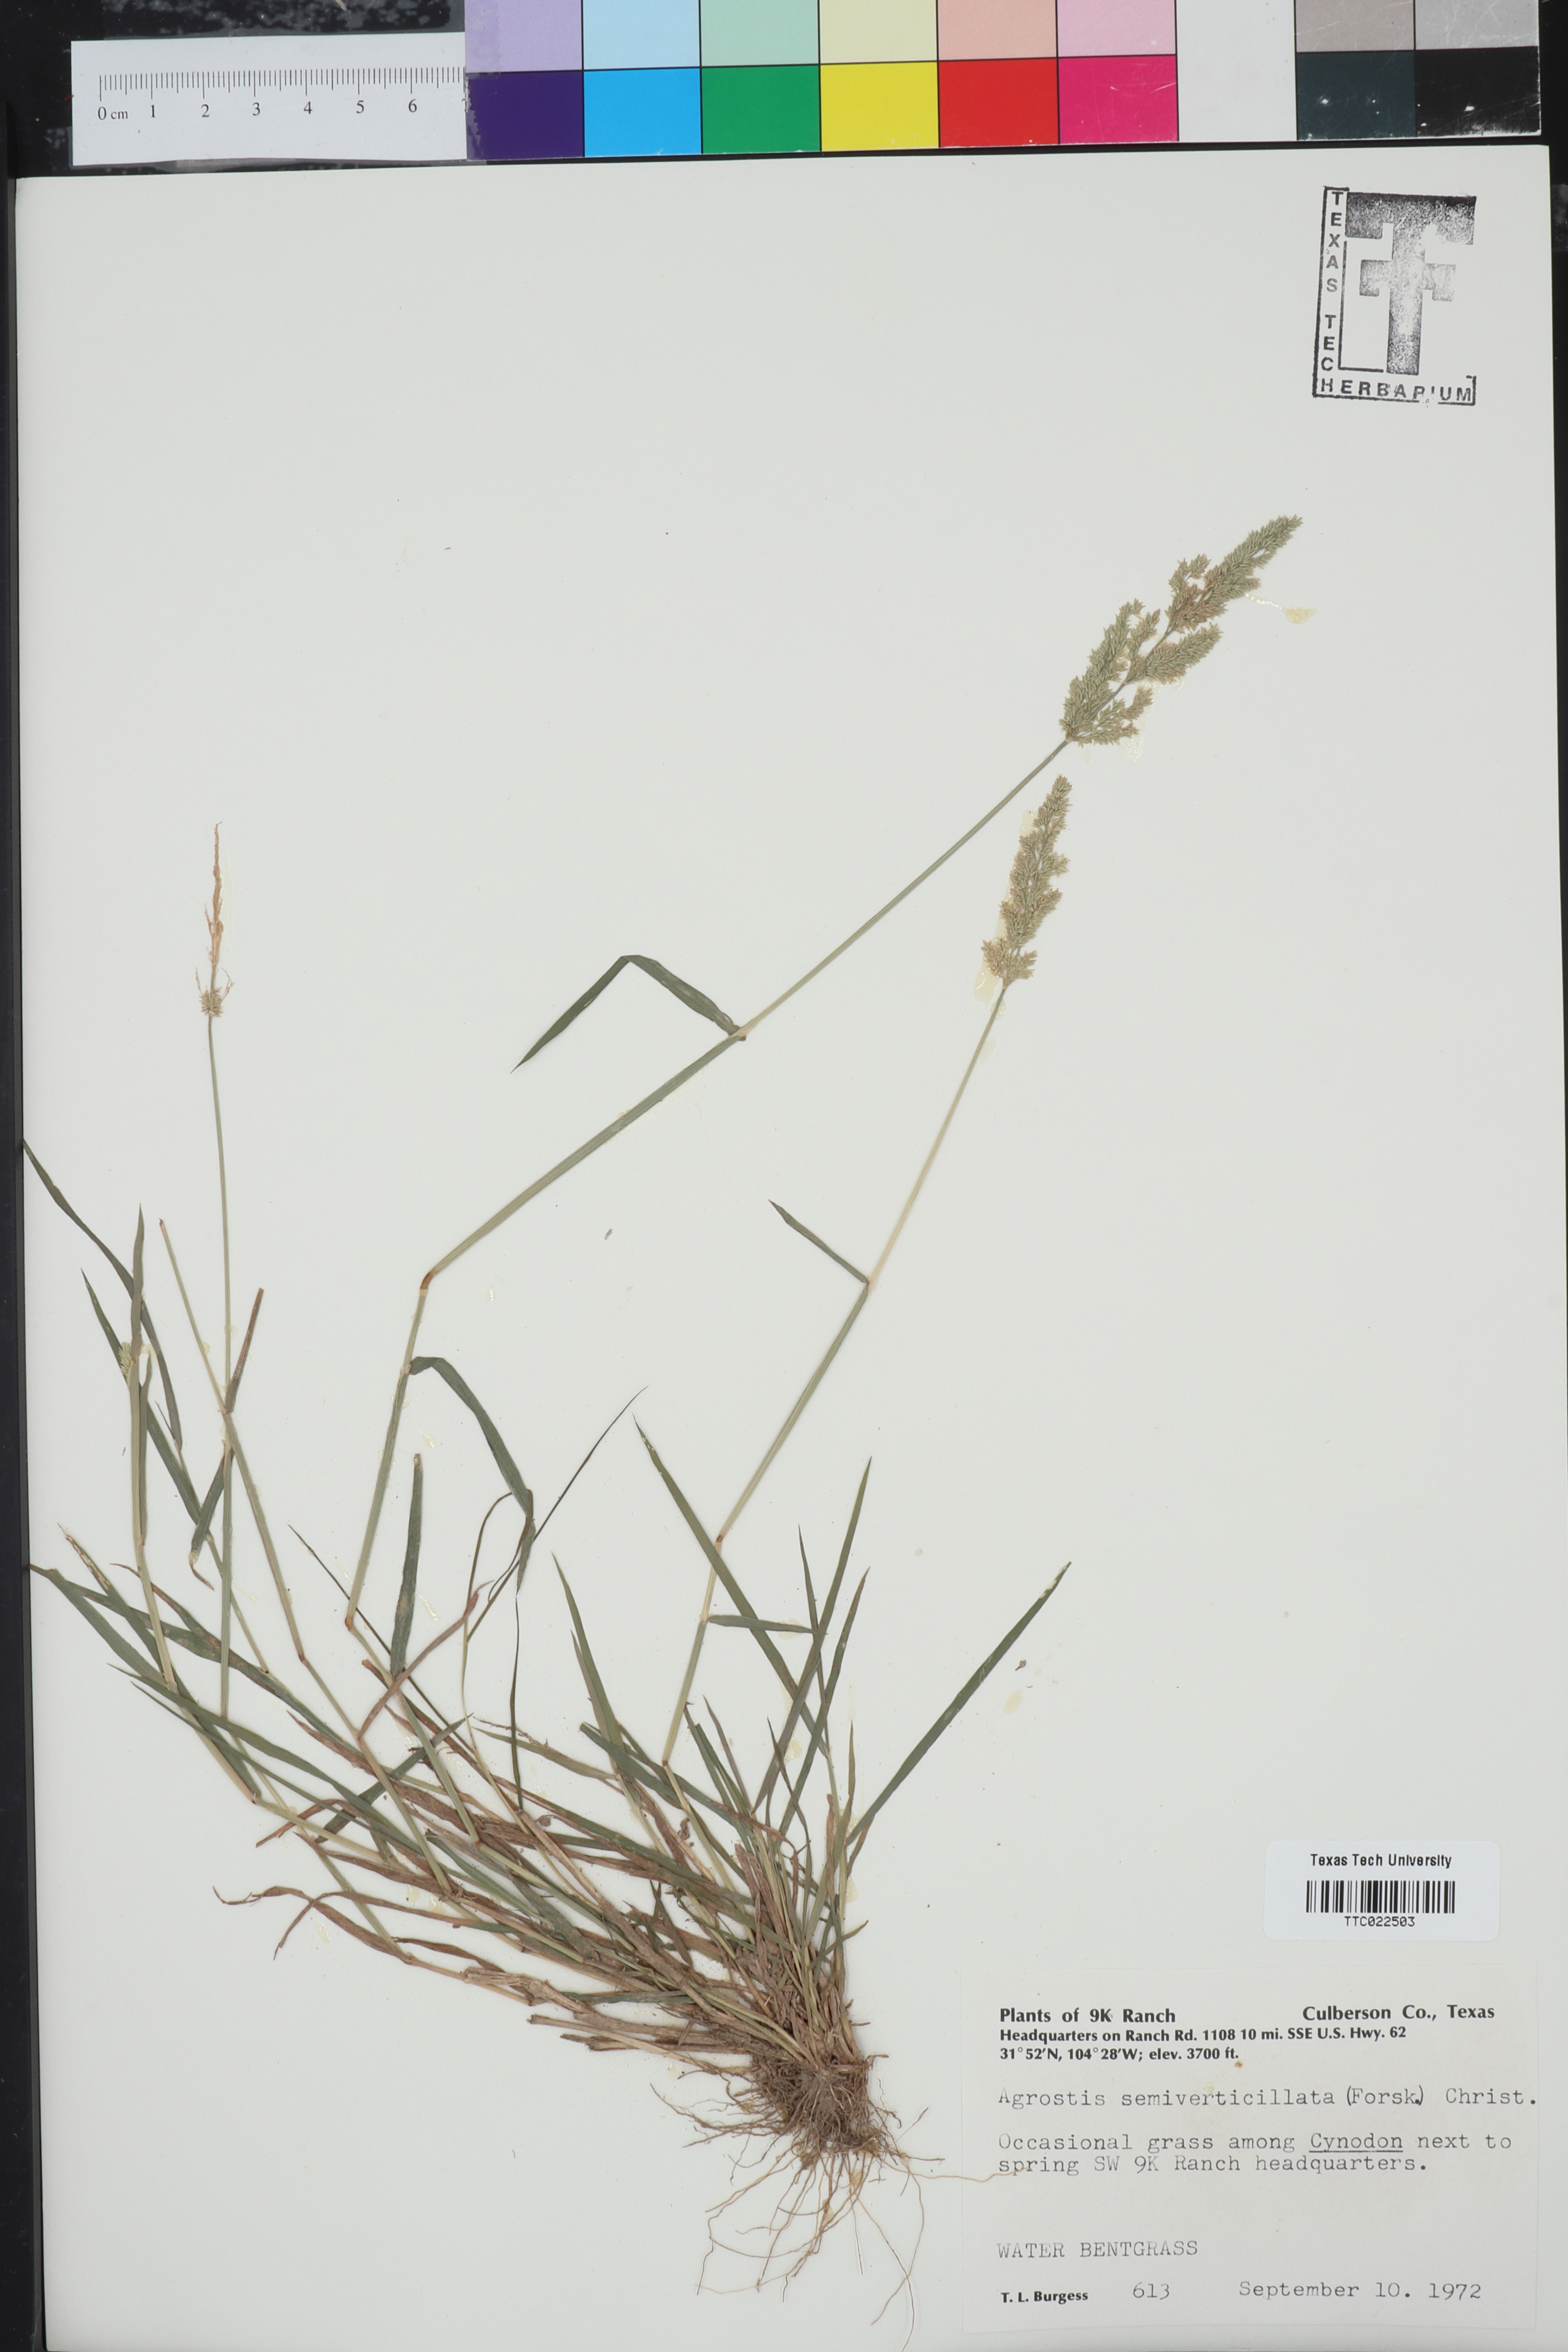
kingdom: Plantae
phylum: Tracheophyta
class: Liliopsida
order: Poales
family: Poaceae
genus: Polypogon
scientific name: Polypogon viridis
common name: Water bent
